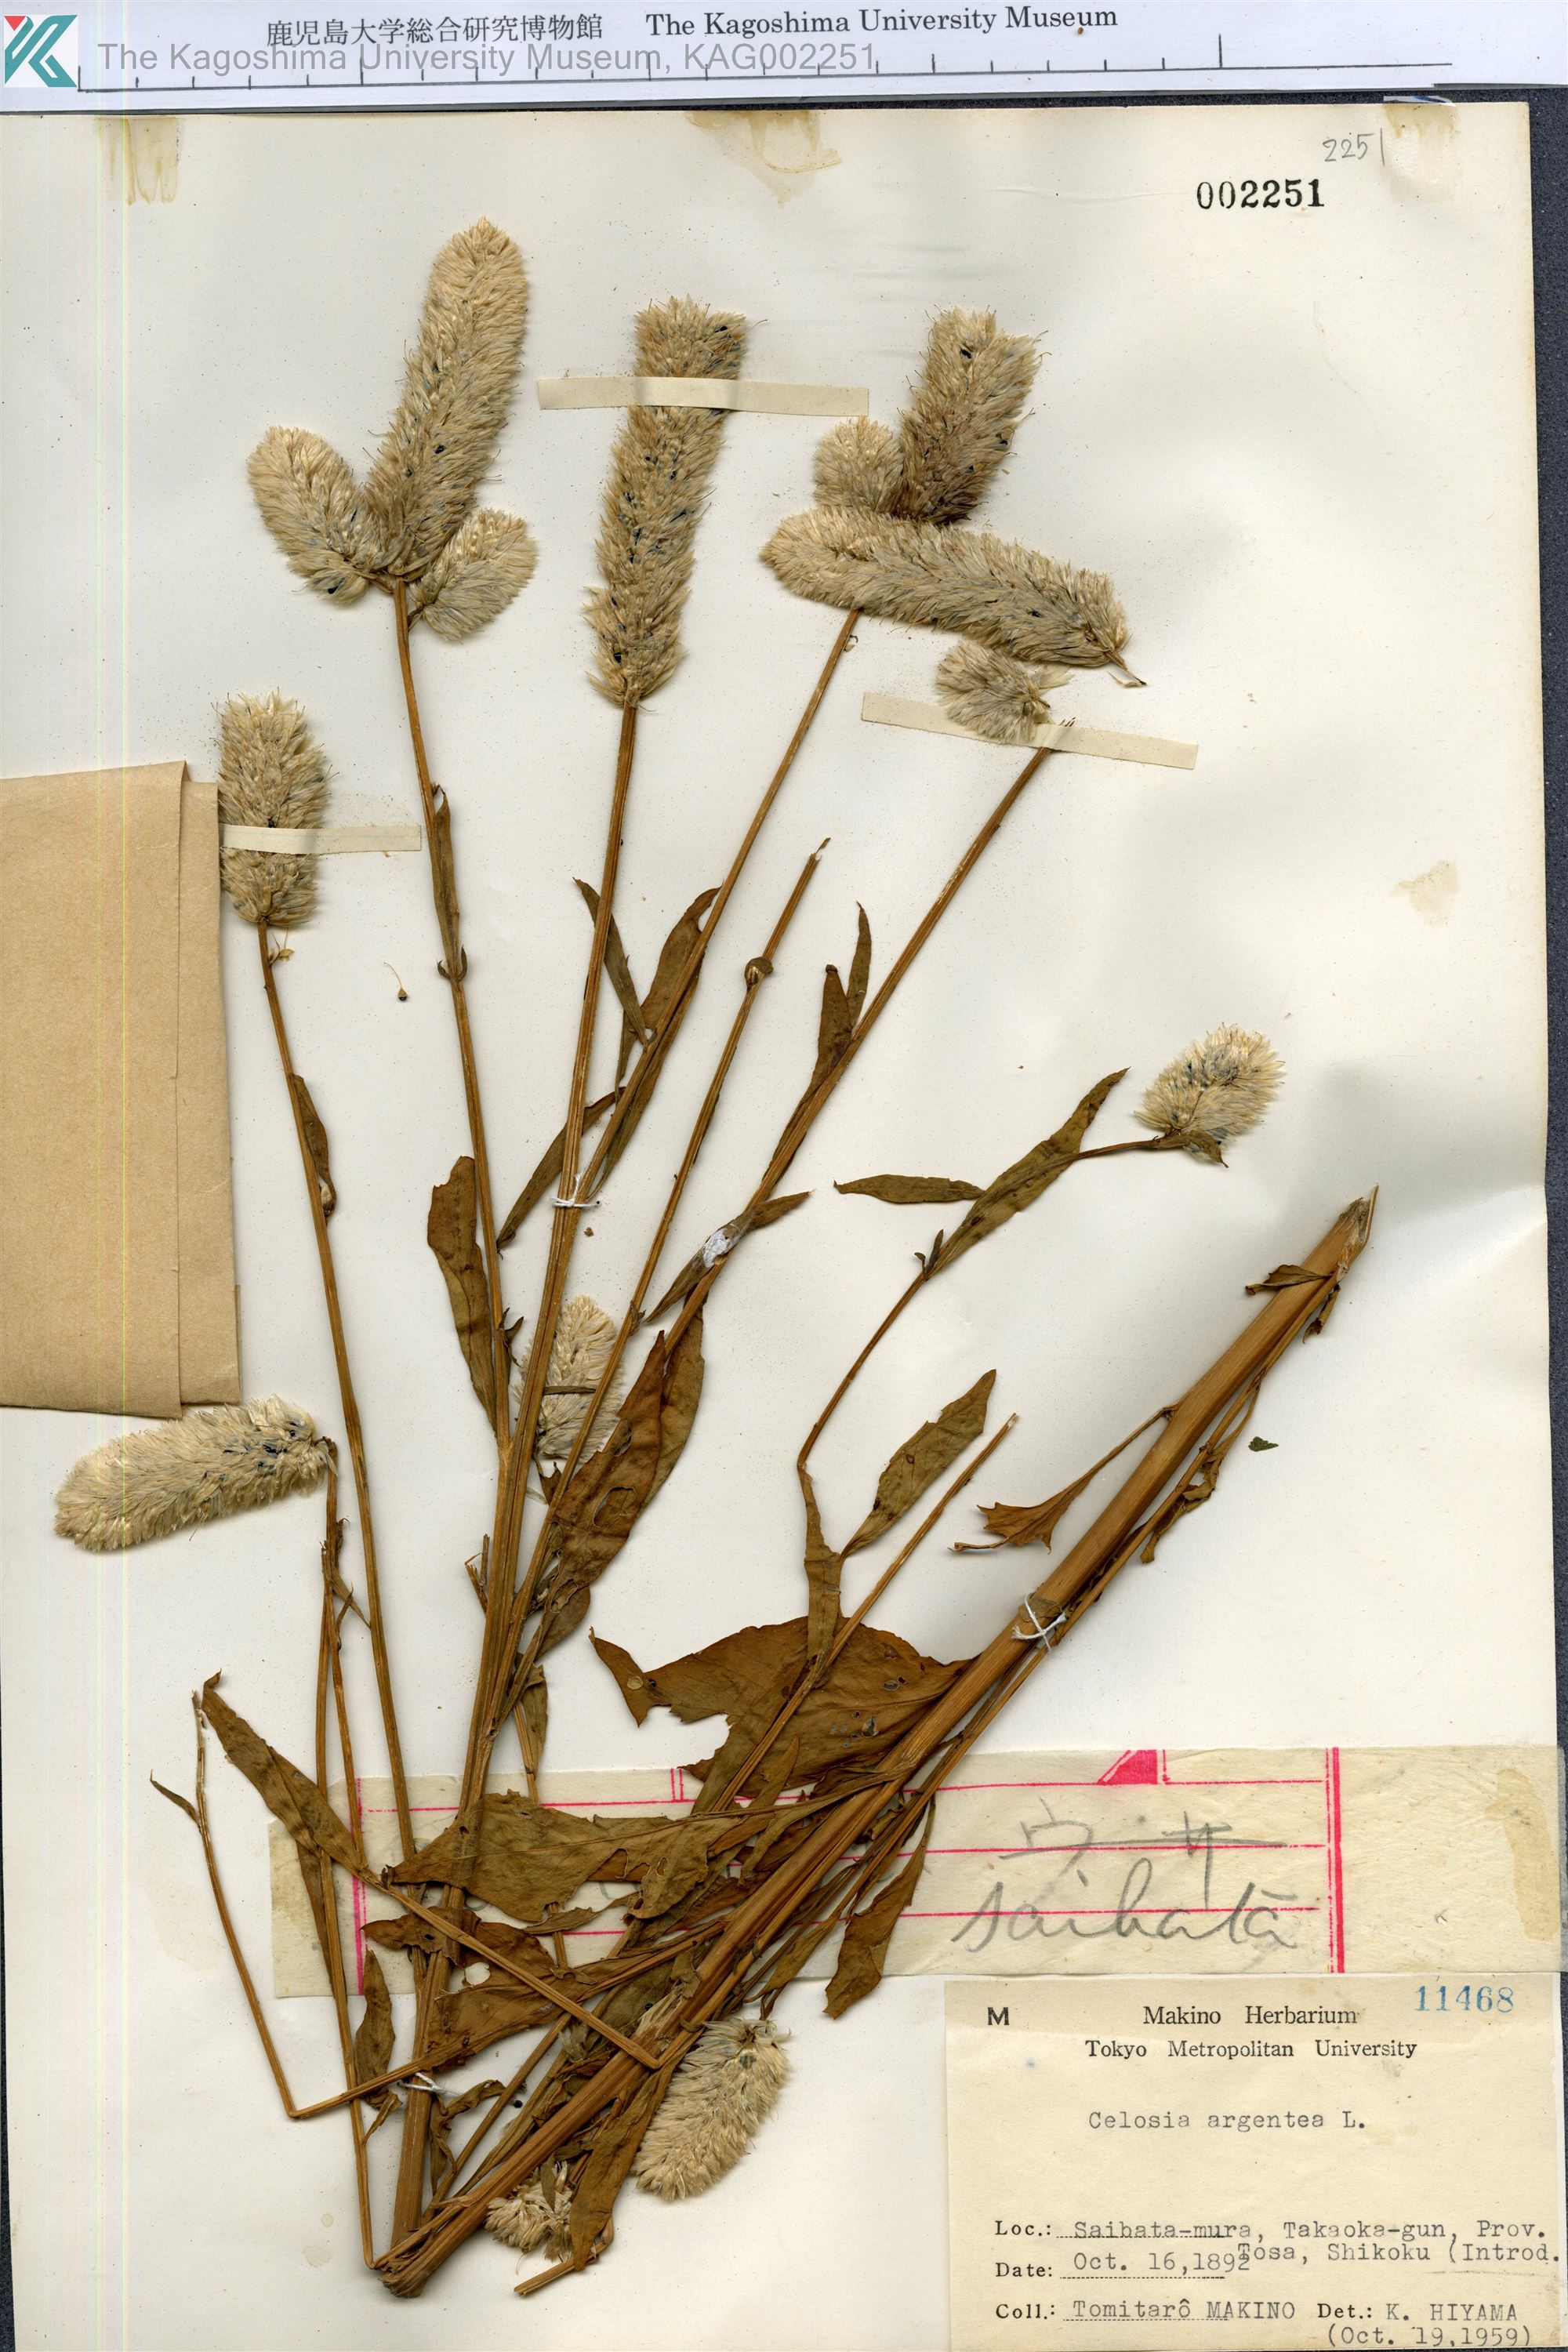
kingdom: Plantae
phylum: Tracheophyta
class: Magnoliopsida
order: Caryophyllales
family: Amaranthaceae
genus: Celosia
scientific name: Celosia argentea
